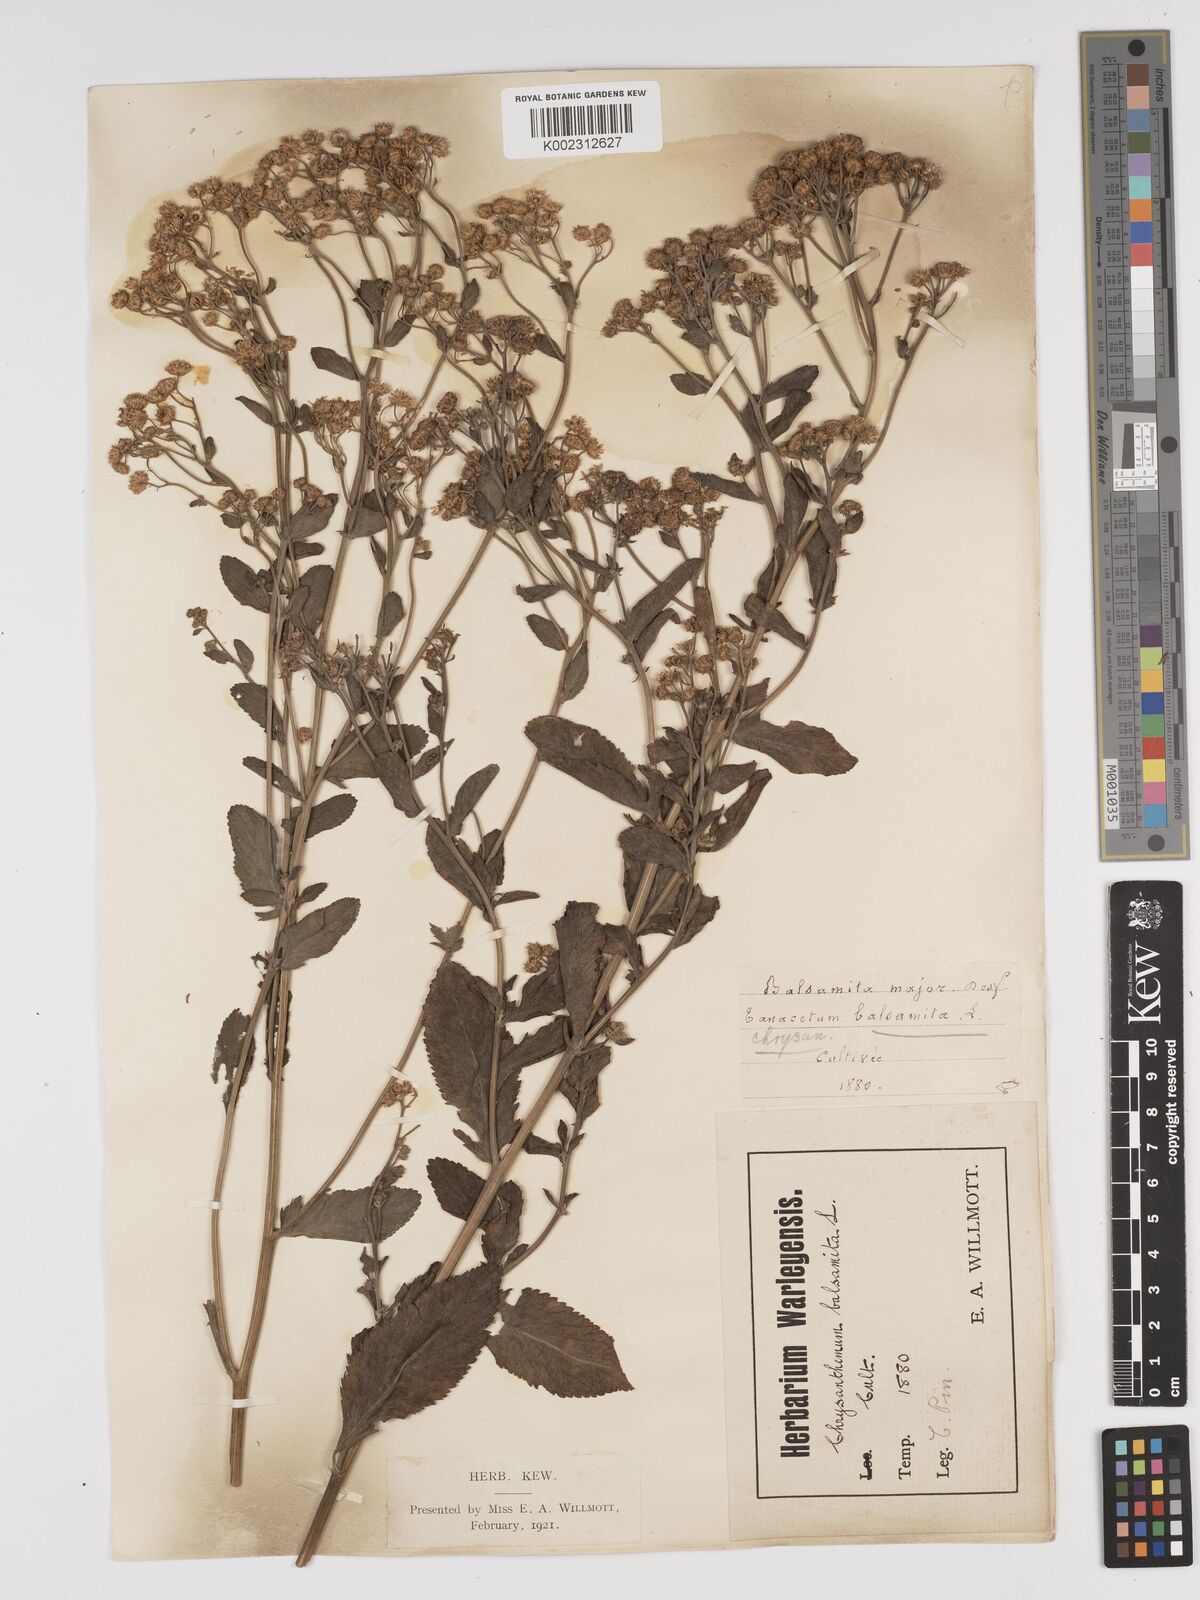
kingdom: Plantae
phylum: Tracheophyta
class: Magnoliopsida
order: Asterales
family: Asteraceae
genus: Tanacetum
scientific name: Tanacetum balsamita
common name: Costmary
